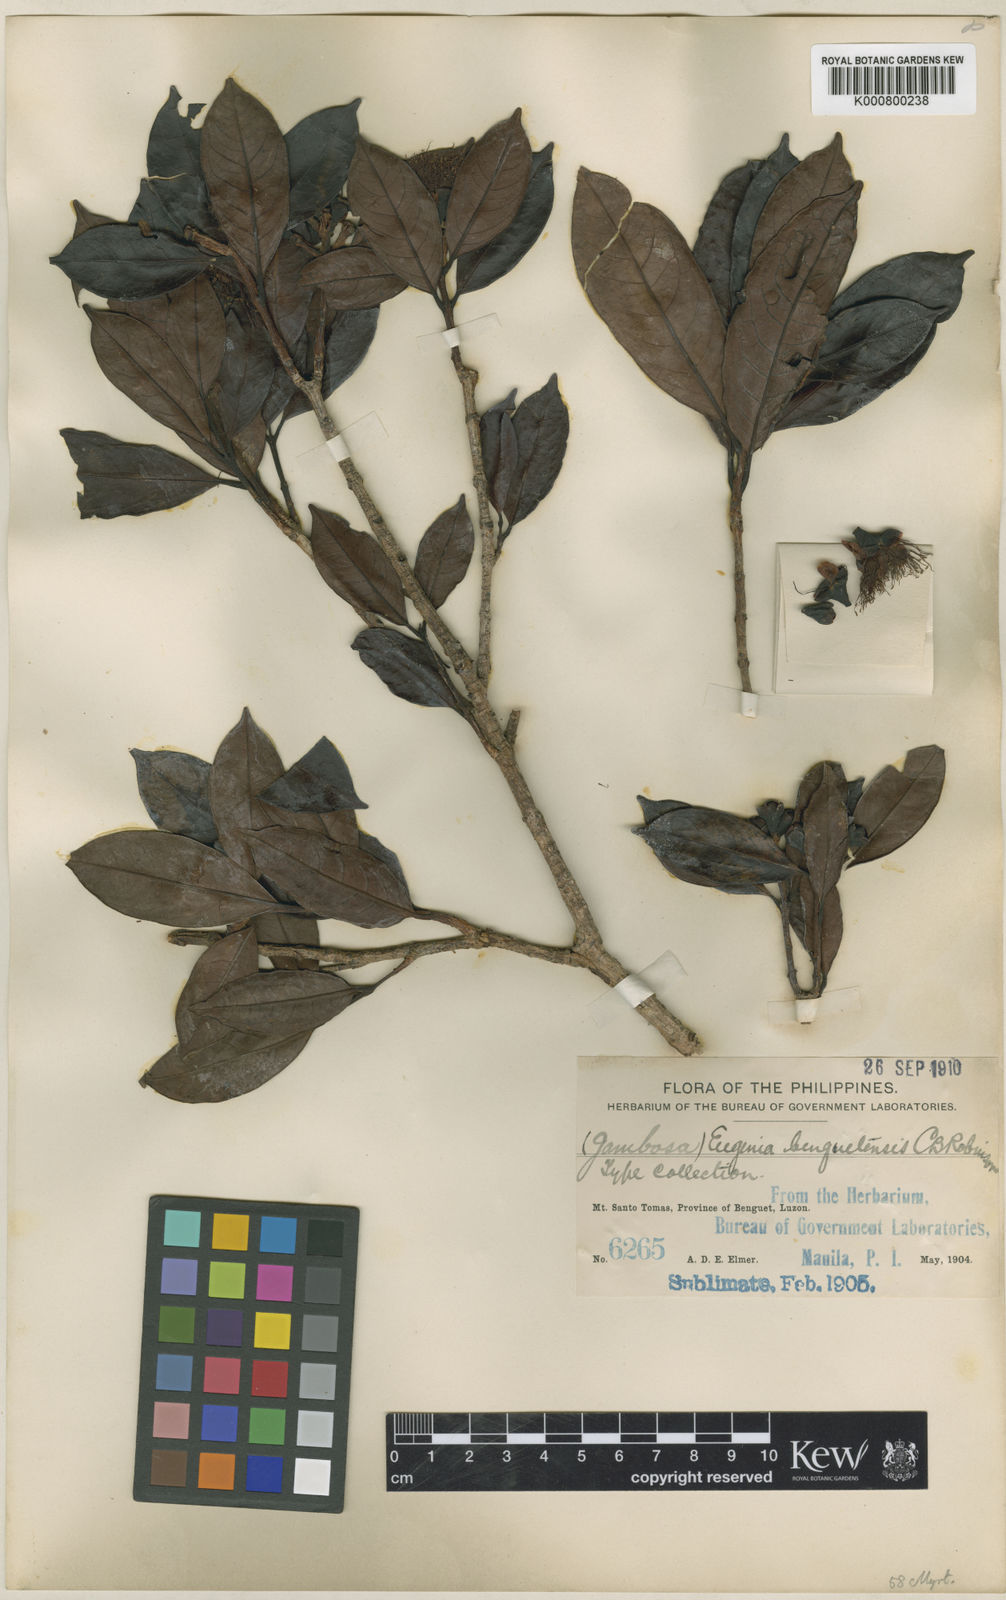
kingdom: Plantae
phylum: Tracheophyta
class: Magnoliopsida
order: Myrtales
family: Myrtaceae
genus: Syzygium
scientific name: Syzygium benguetense
